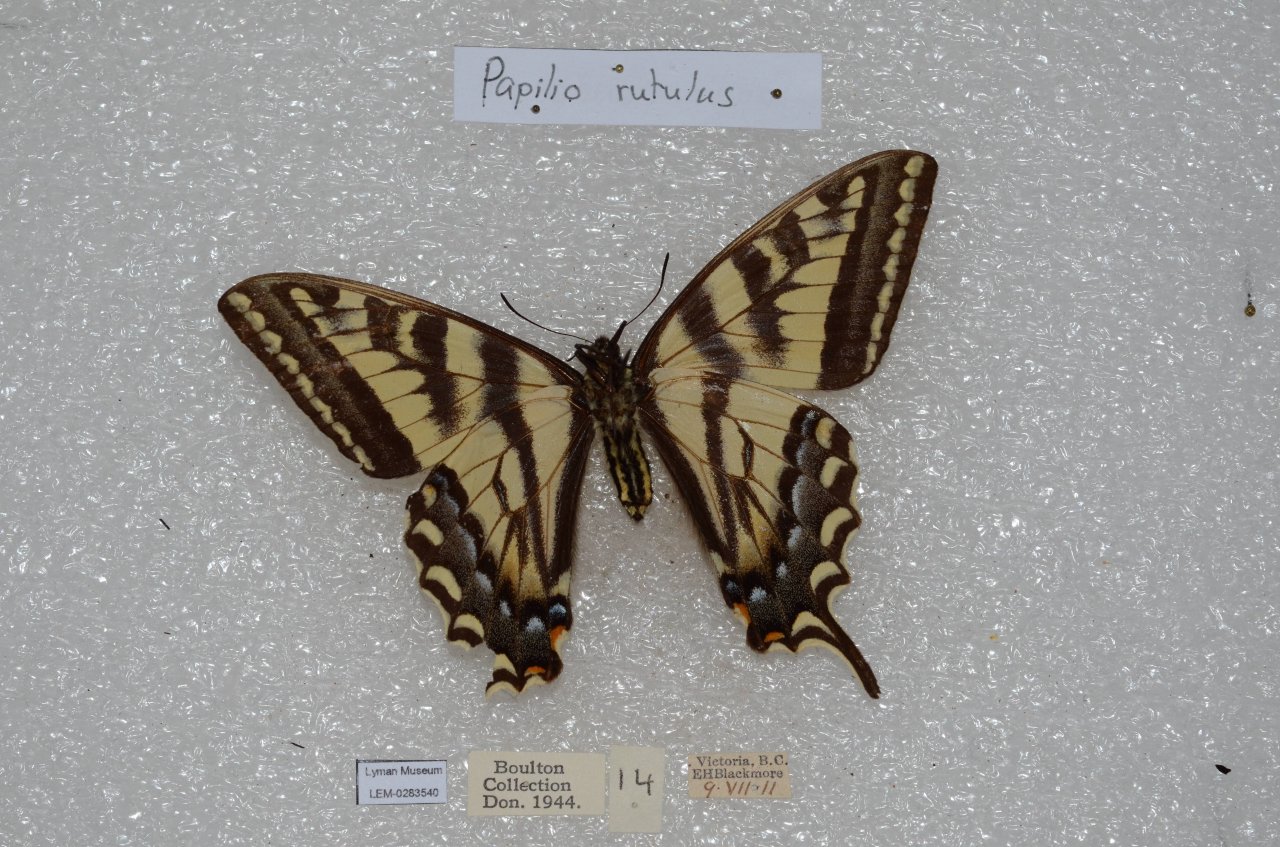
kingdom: Animalia
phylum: Arthropoda
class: Insecta
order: Lepidoptera
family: Papilionidae
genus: Pterourus
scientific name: Pterourus rutulus
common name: Western Tiger Swallowtail
